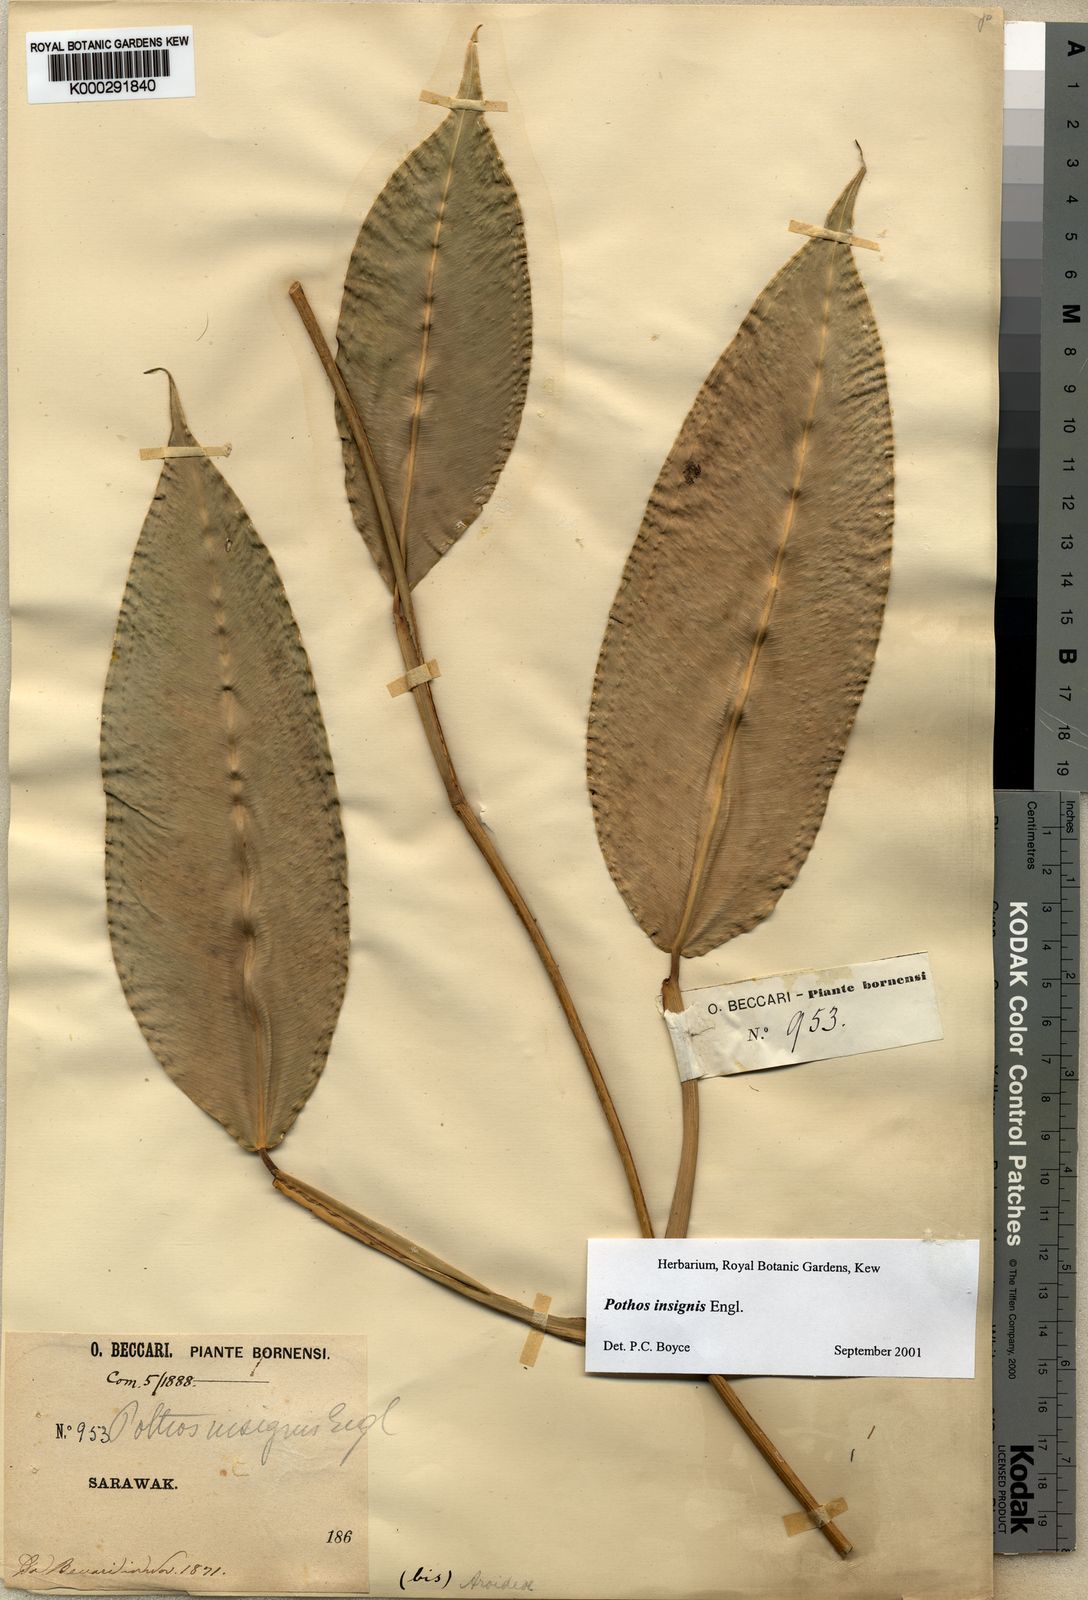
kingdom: Plantae
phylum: Tracheophyta
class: Liliopsida
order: Alismatales
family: Araceae
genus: Pothos
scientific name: Pothos insignis
